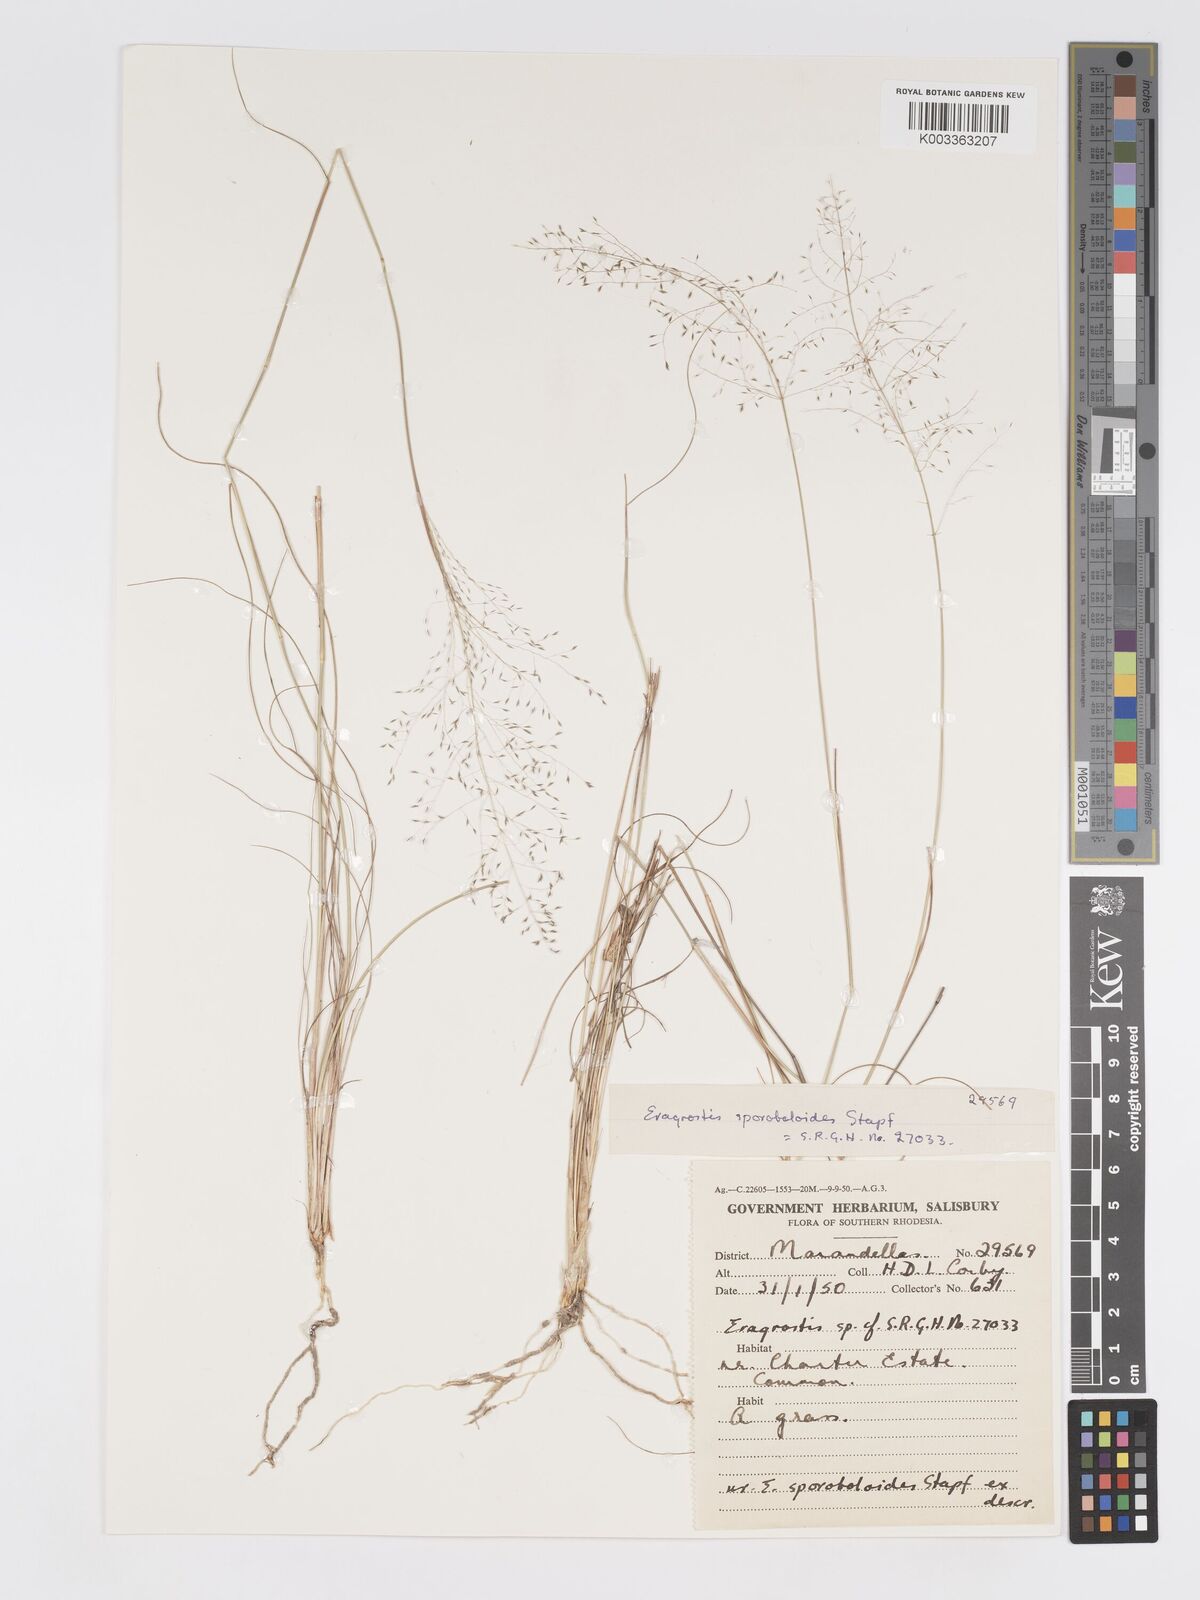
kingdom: Plantae
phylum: Tracheophyta
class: Liliopsida
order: Poales
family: Poaceae
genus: Eragrostis
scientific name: Eragrostis stapfii
